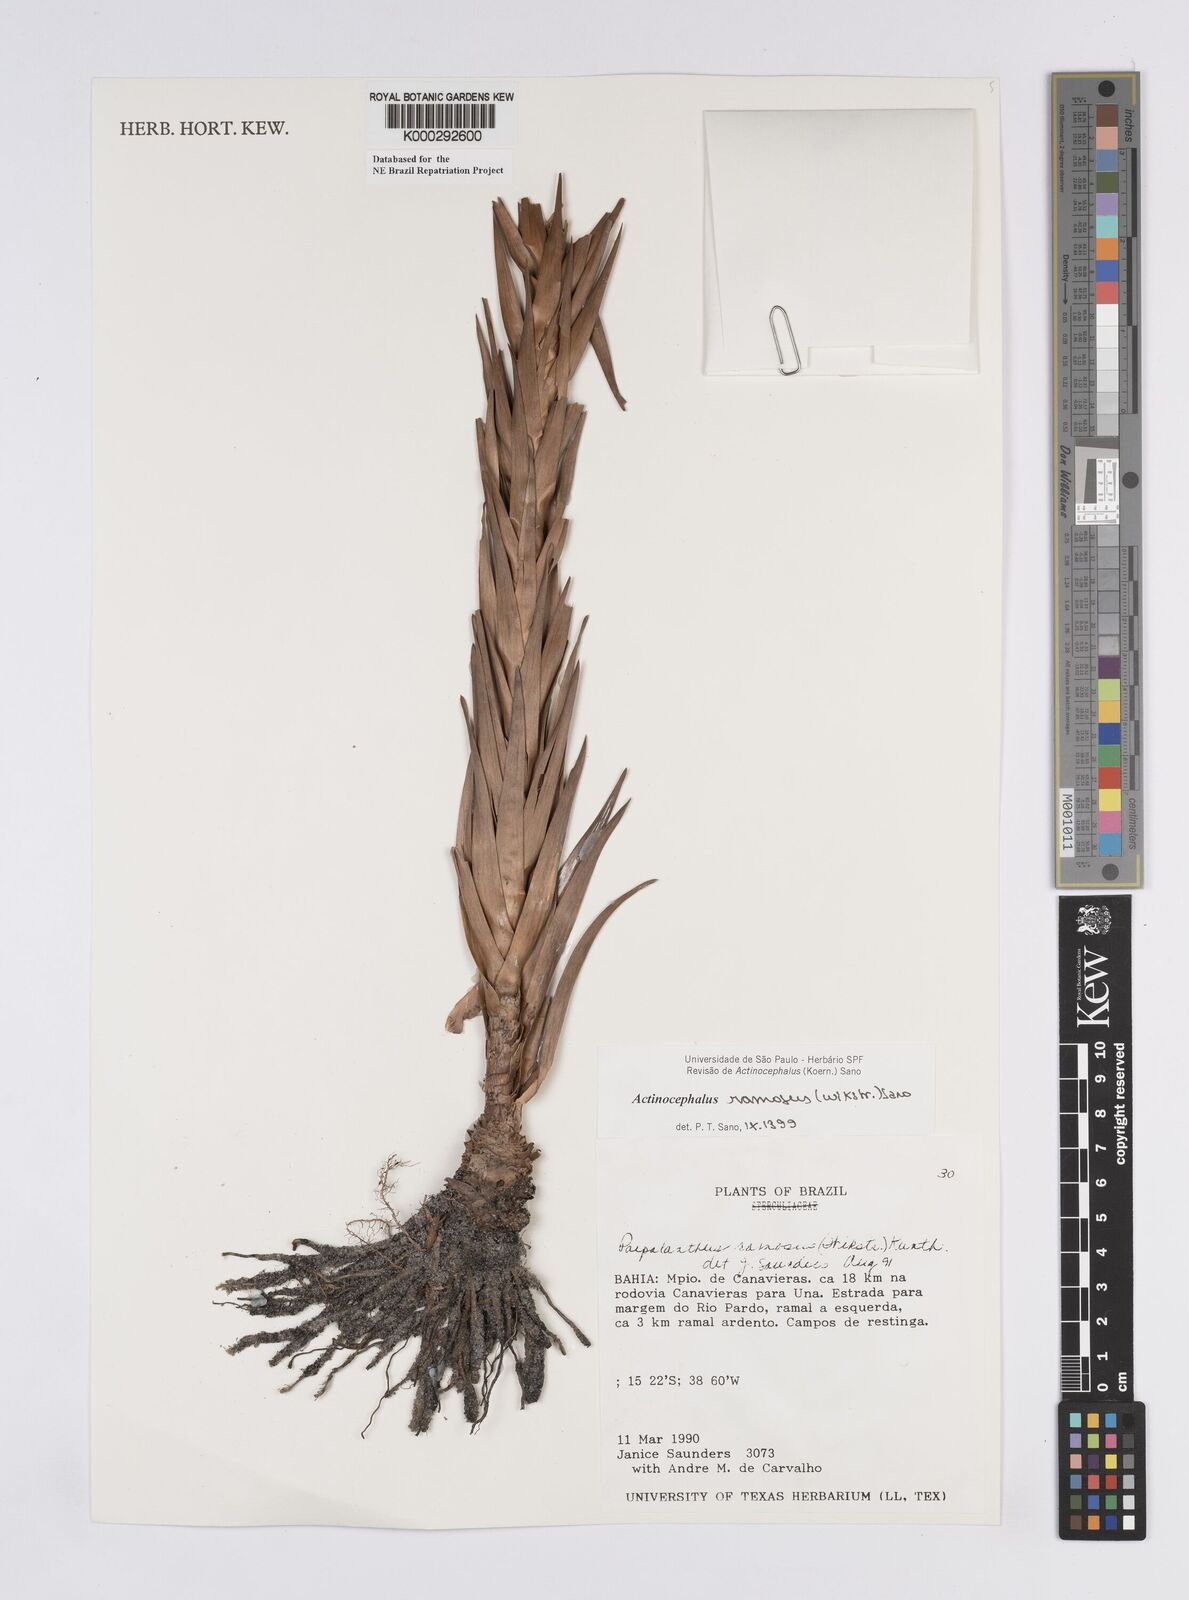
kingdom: Plantae
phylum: Tracheophyta
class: Liliopsida
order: Poales
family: Eriocaulaceae
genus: Paepalanthus
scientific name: Paepalanthus ramosus
